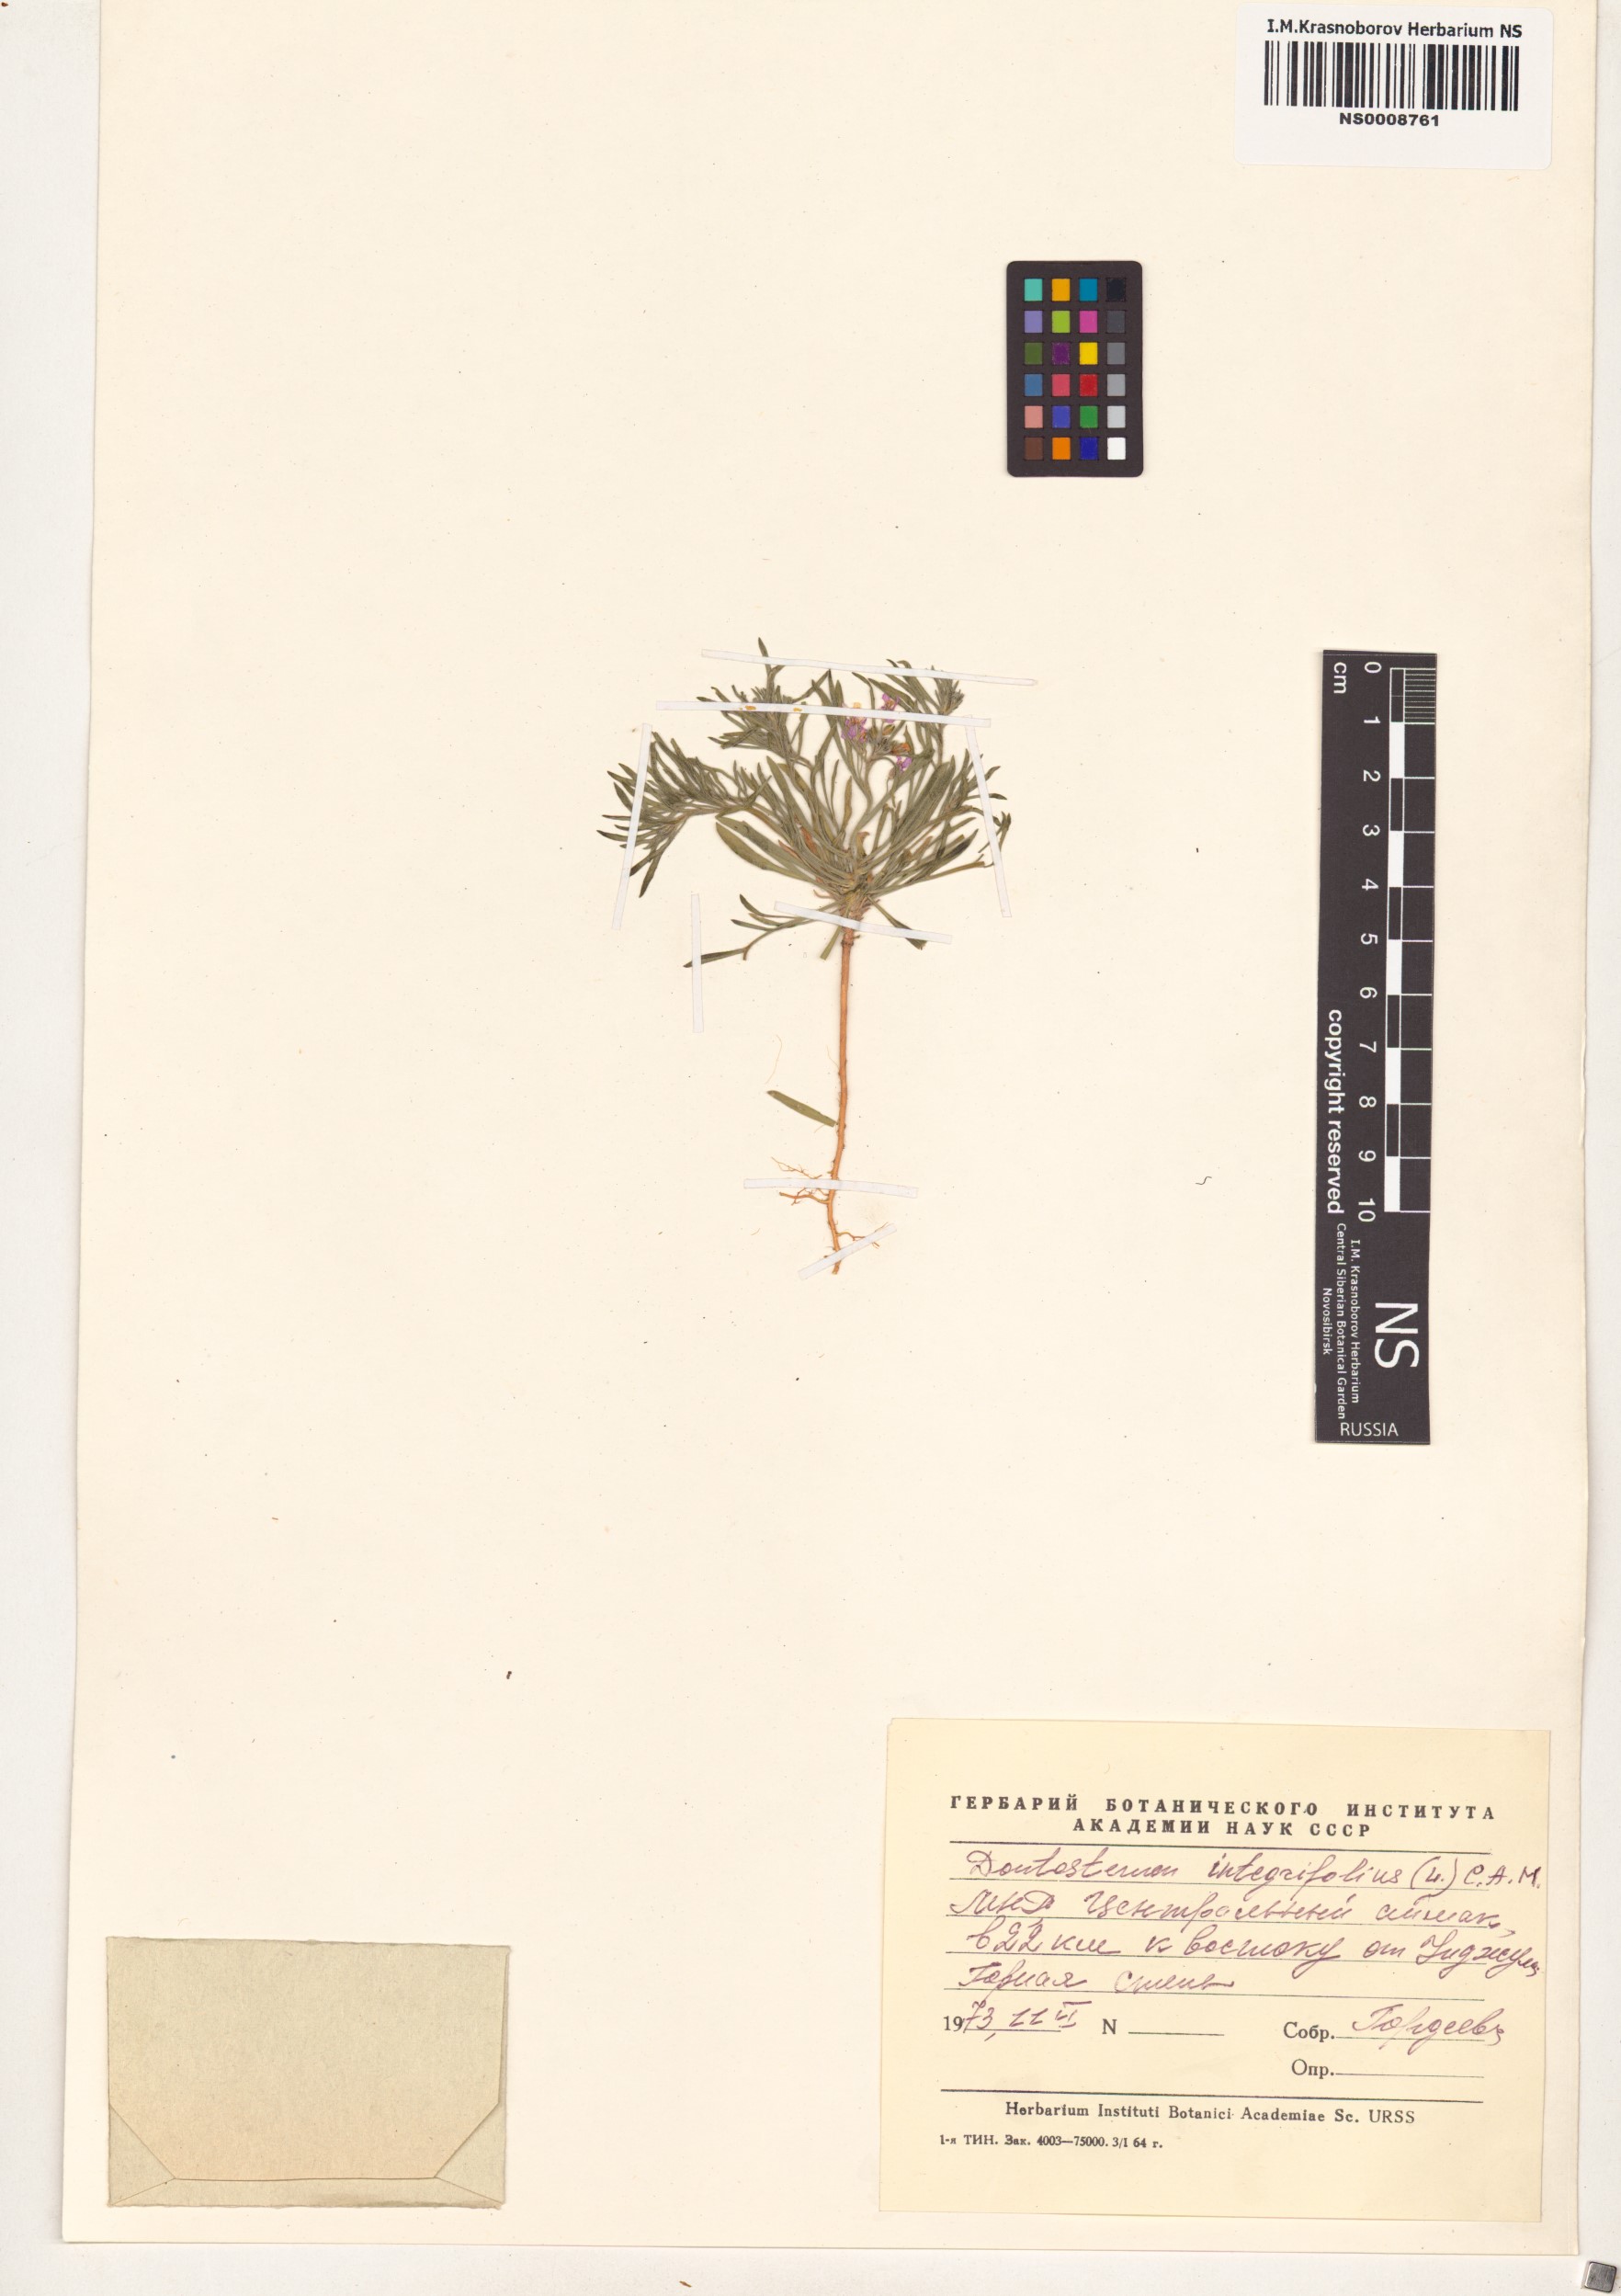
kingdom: Plantae
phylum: Tracheophyta
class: Magnoliopsida
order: Brassicales
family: Brassicaceae
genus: Dontostemon
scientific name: Dontostemon integrifolius
